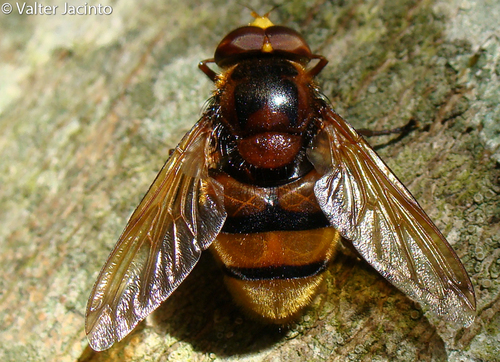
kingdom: Animalia
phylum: Arthropoda
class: Insecta
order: Diptera
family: Syrphidae
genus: Volucella
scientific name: Volucella zonaria
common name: Hornet hoverfly
